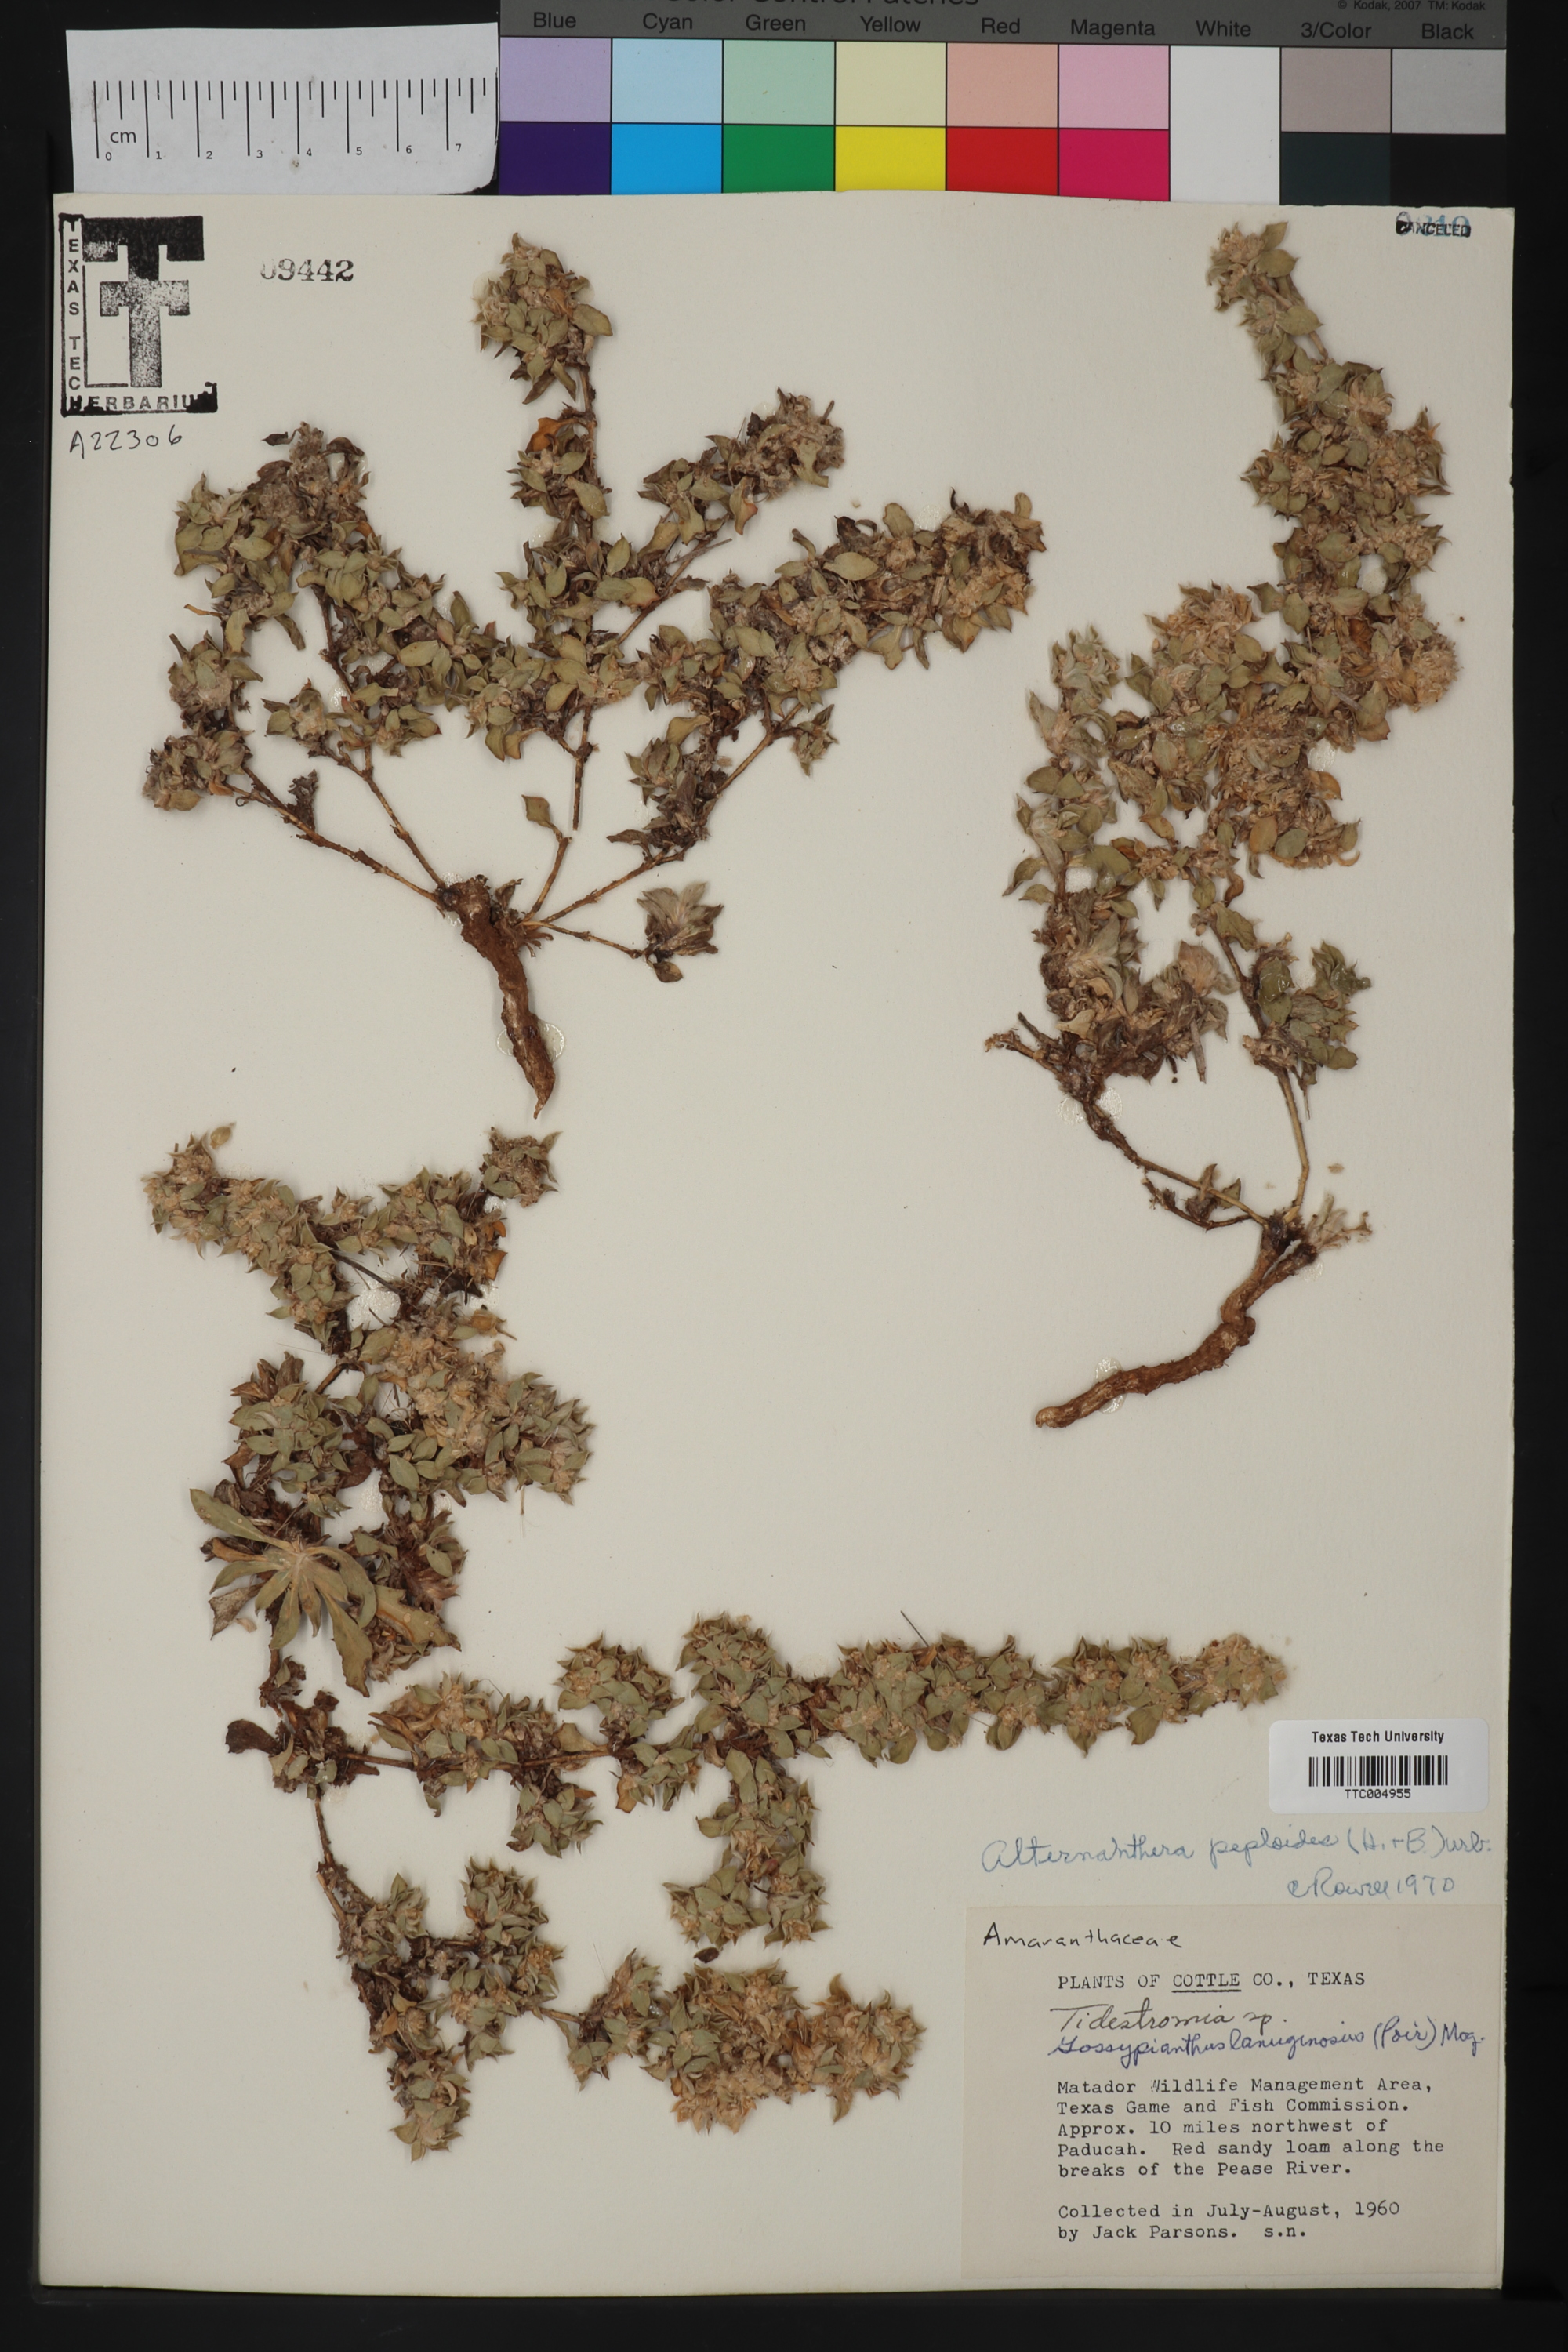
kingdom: Plantae
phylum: Tracheophyta
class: Magnoliopsida
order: Caryophyllales
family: Amaranthaceae
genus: Alternanthera
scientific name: Alternanthera caracasana
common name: Washerwoman
